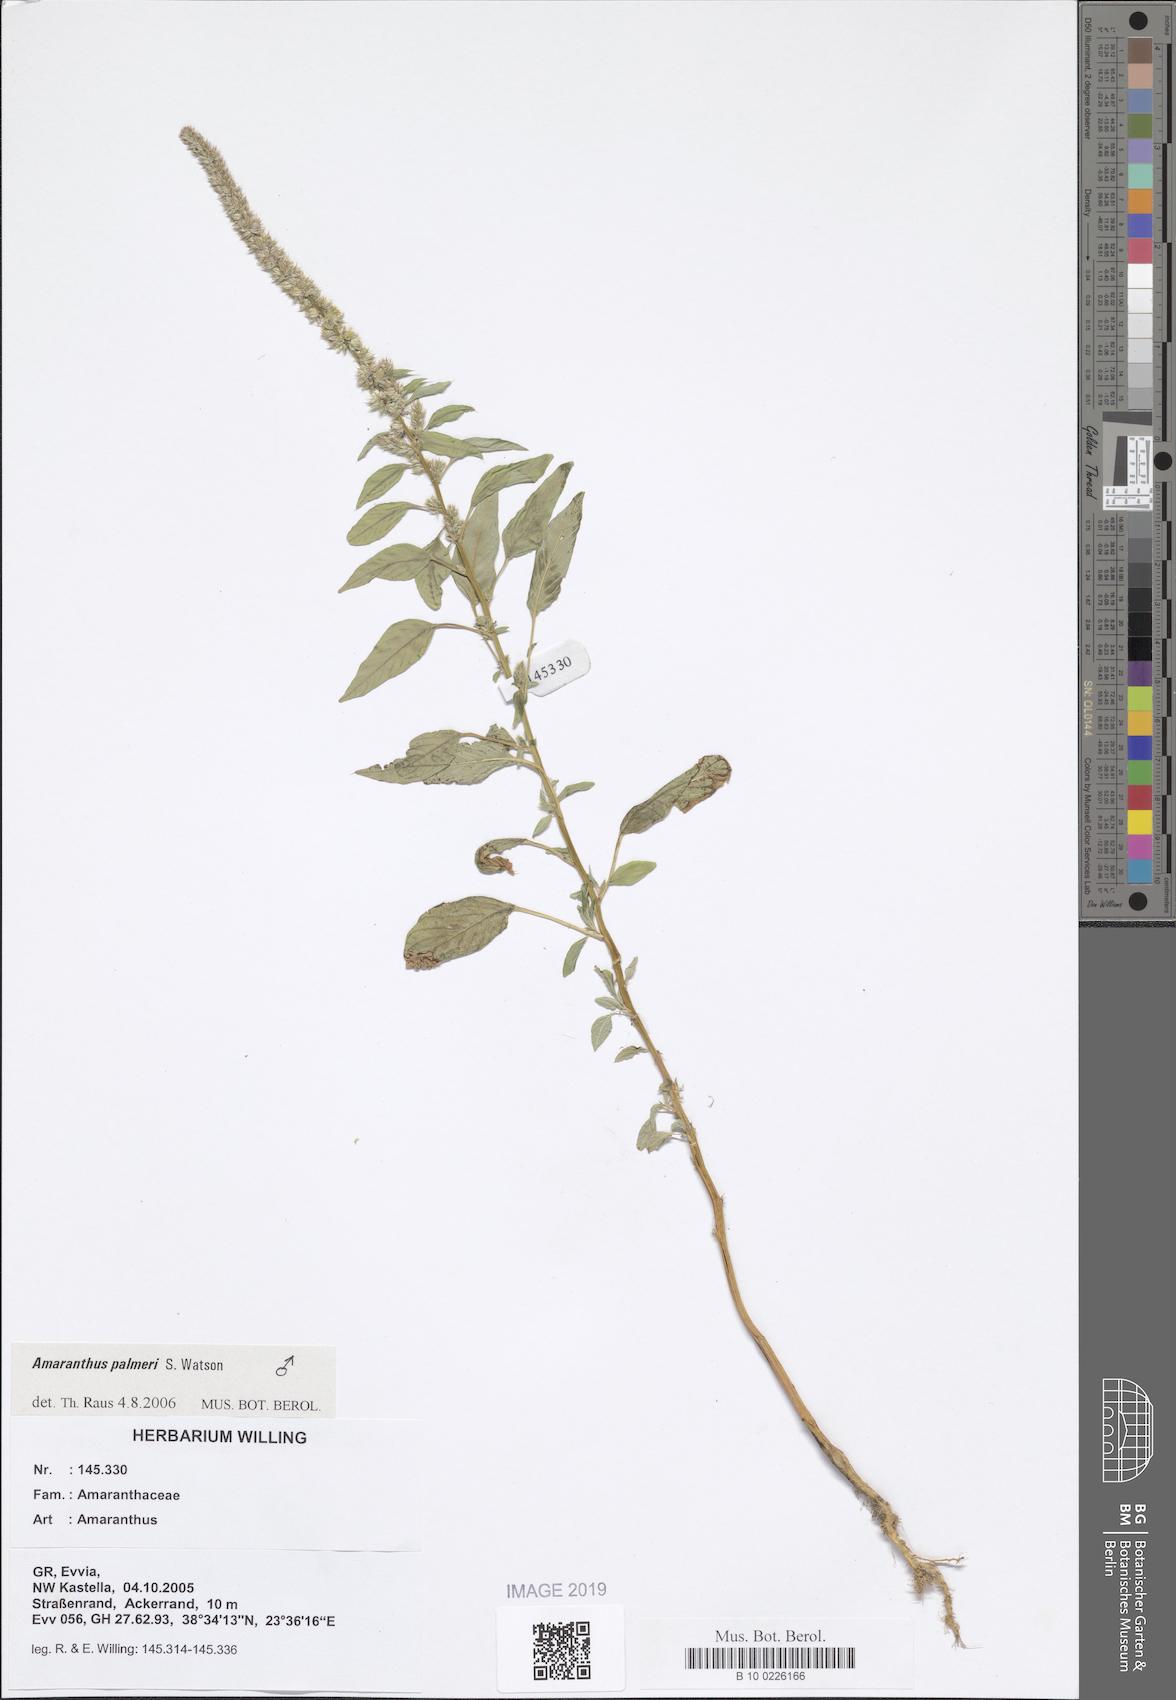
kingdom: Plantae
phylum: Tracheophyta
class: Magnoliopsida
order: Caryophyllales
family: Amaranthaceae
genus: Amaranthus
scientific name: Amaranthus
